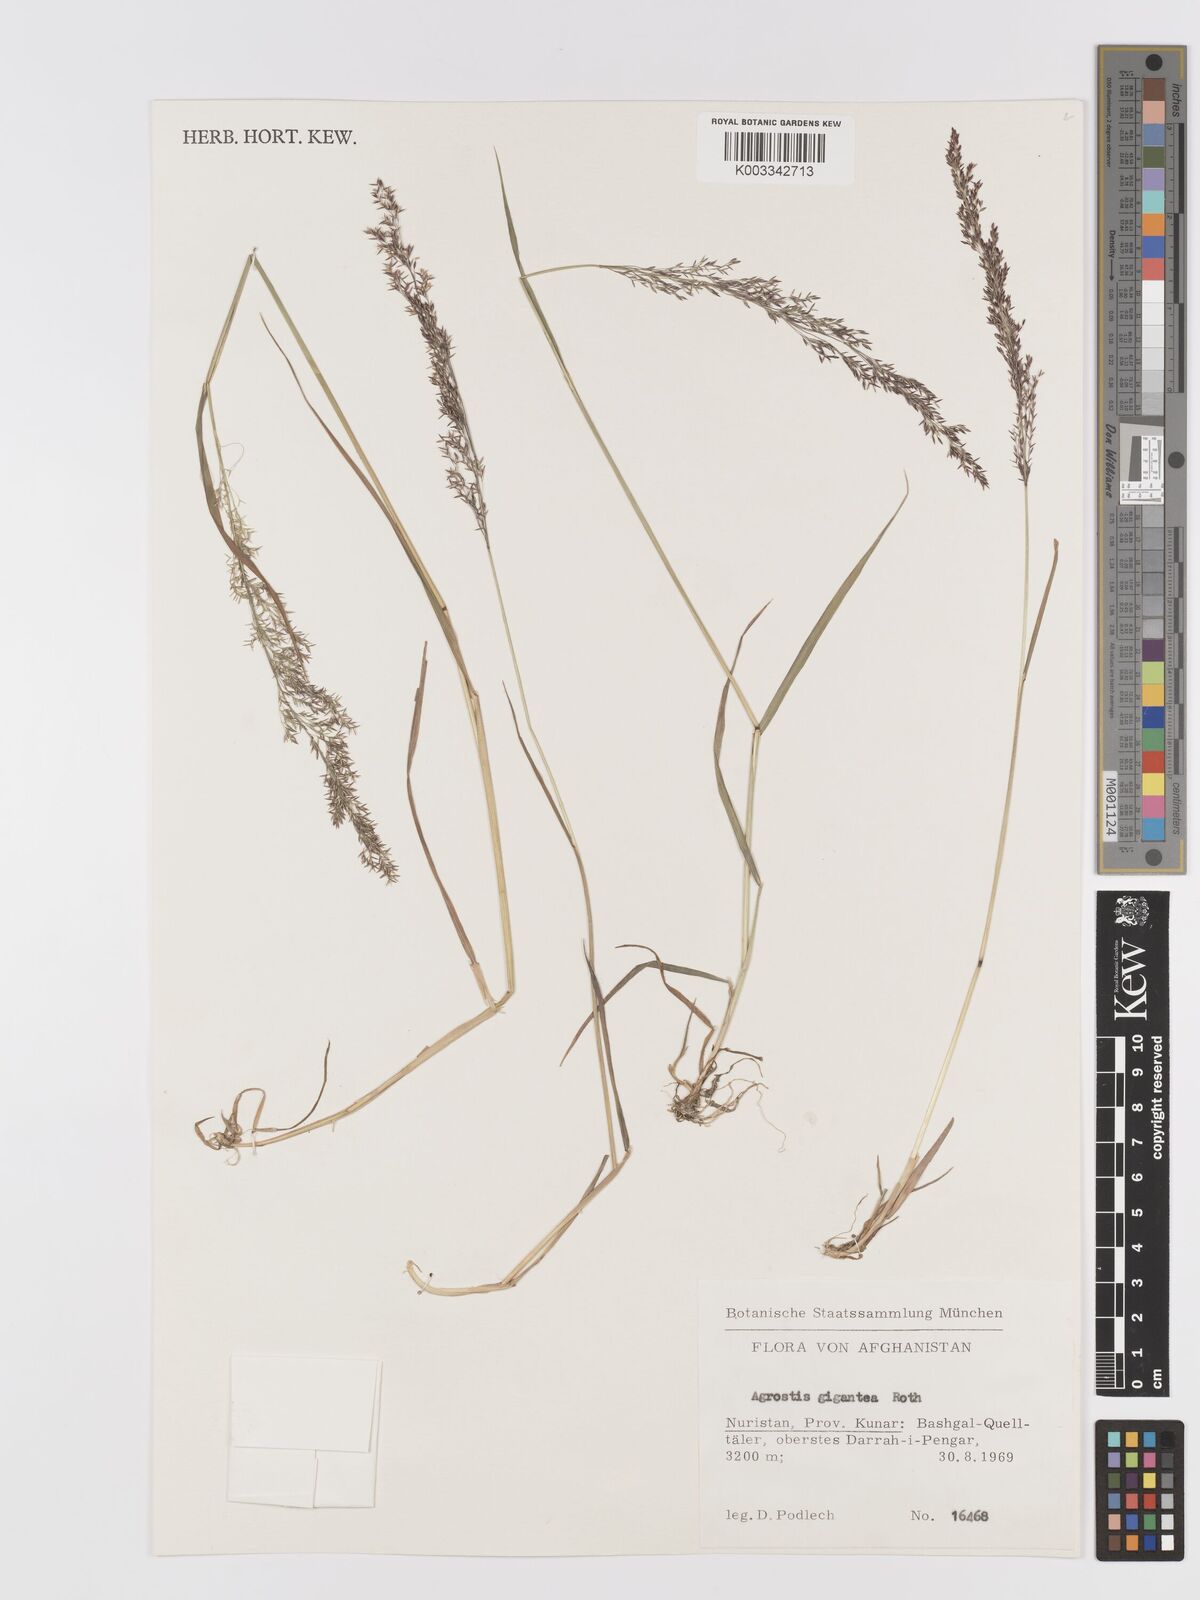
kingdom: Plantae
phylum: Tracheophyta
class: Liliopsida
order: Poales
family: Poaceae
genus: Agrostis
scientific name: Agrostis gigantea
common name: Black bent
